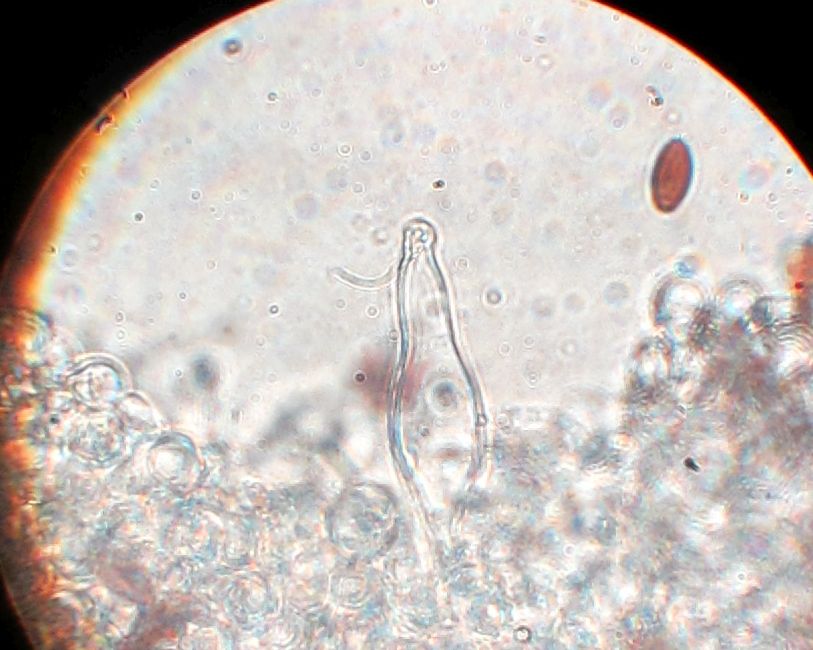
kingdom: Fungi
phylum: Basidiomycota
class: Agaricomycetes
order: Agaricales
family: Psathyrellaceae
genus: Psathyrella
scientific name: Psathyrella microrhiza
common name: rod-mørkhat
